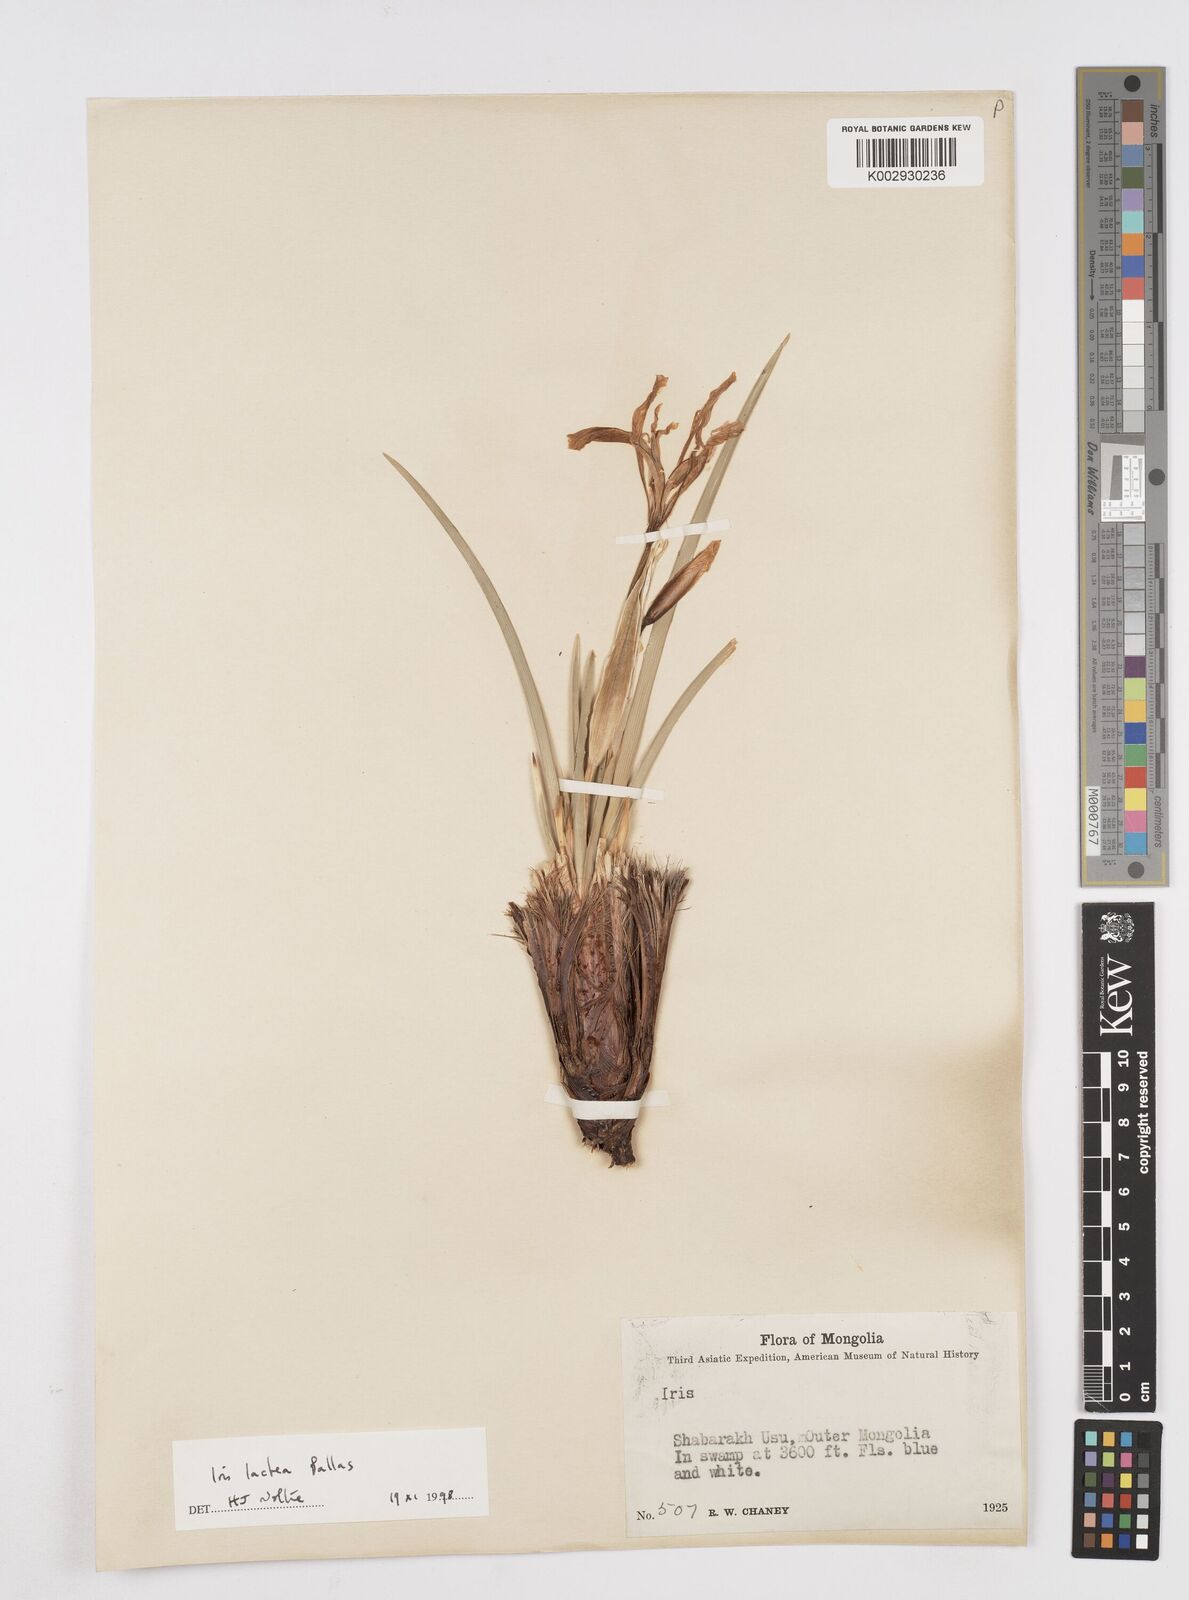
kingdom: Plantae
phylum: Tracheophyta
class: Liliopsida
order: Asparagales
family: Iridaceae
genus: Iris
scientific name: Iris lactea
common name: White-flower chinese iris
